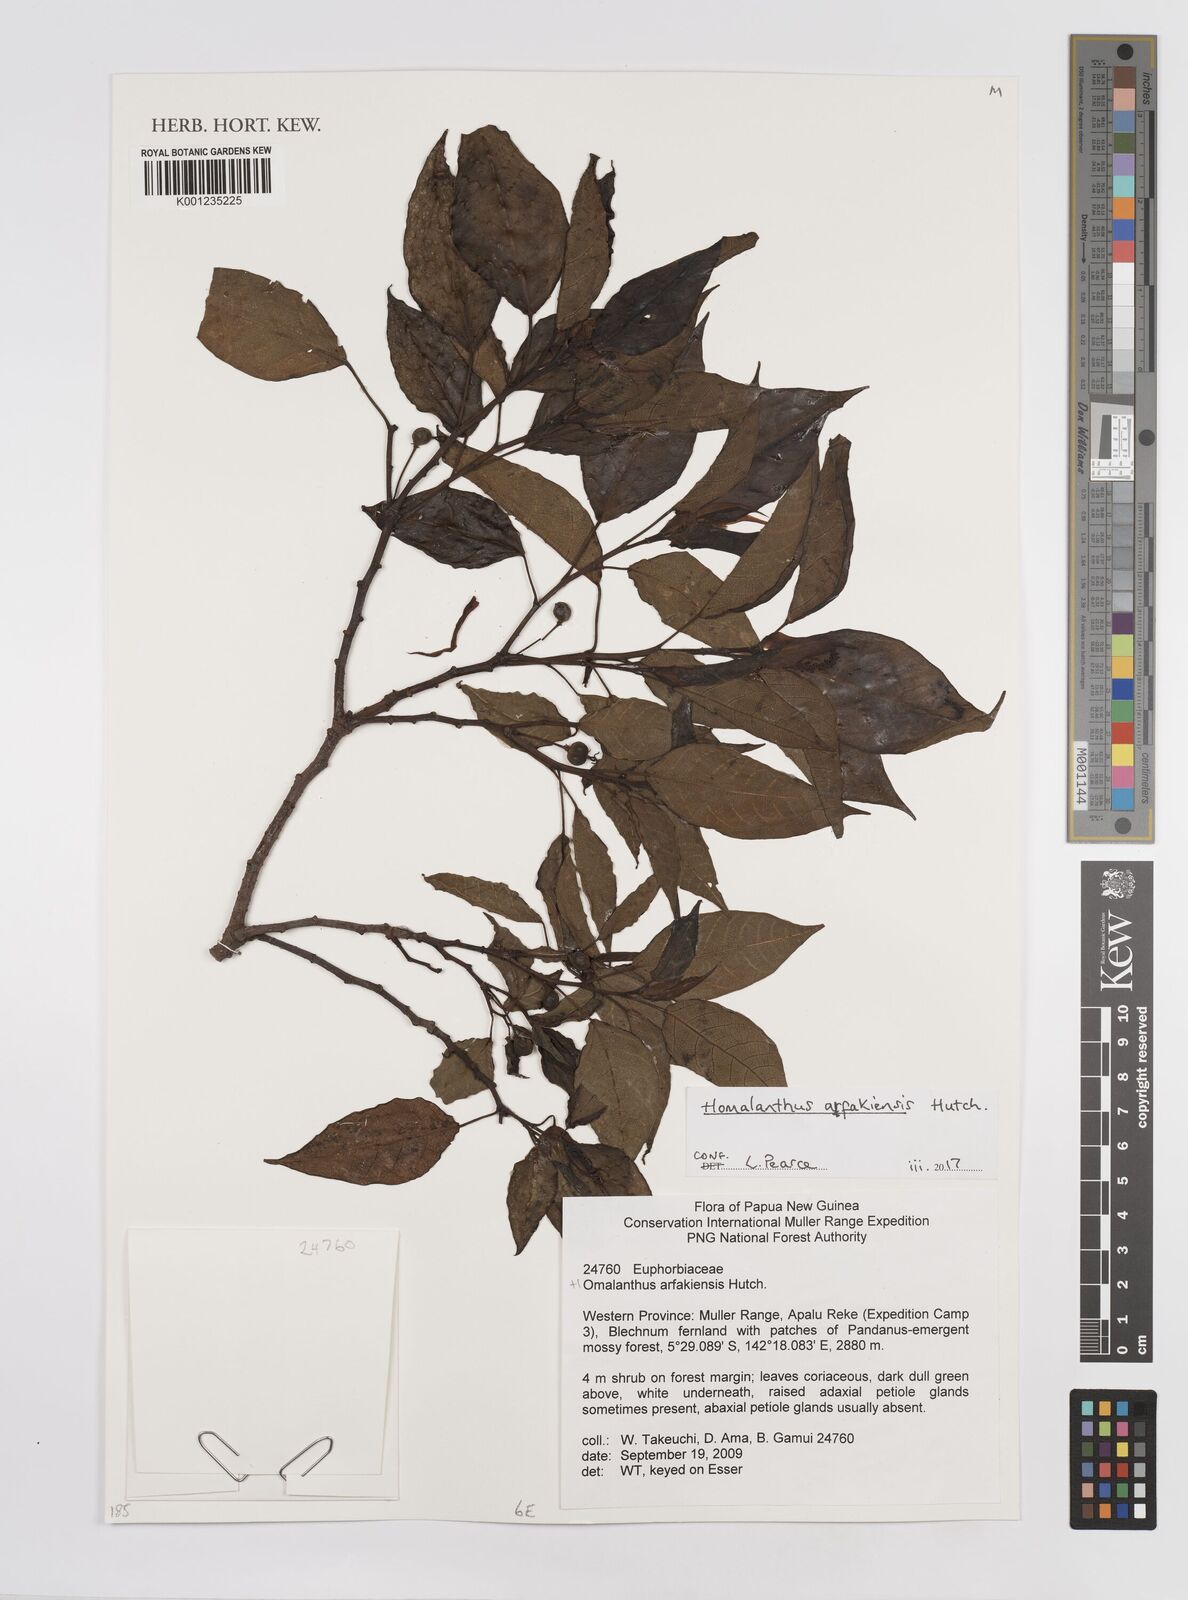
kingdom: Plantae
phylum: Tracheophyta
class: Magnoliopsida
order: Malpighiales
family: Euphorbiaceae
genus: Homalanthus
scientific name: Homalanthus arfakiensis
